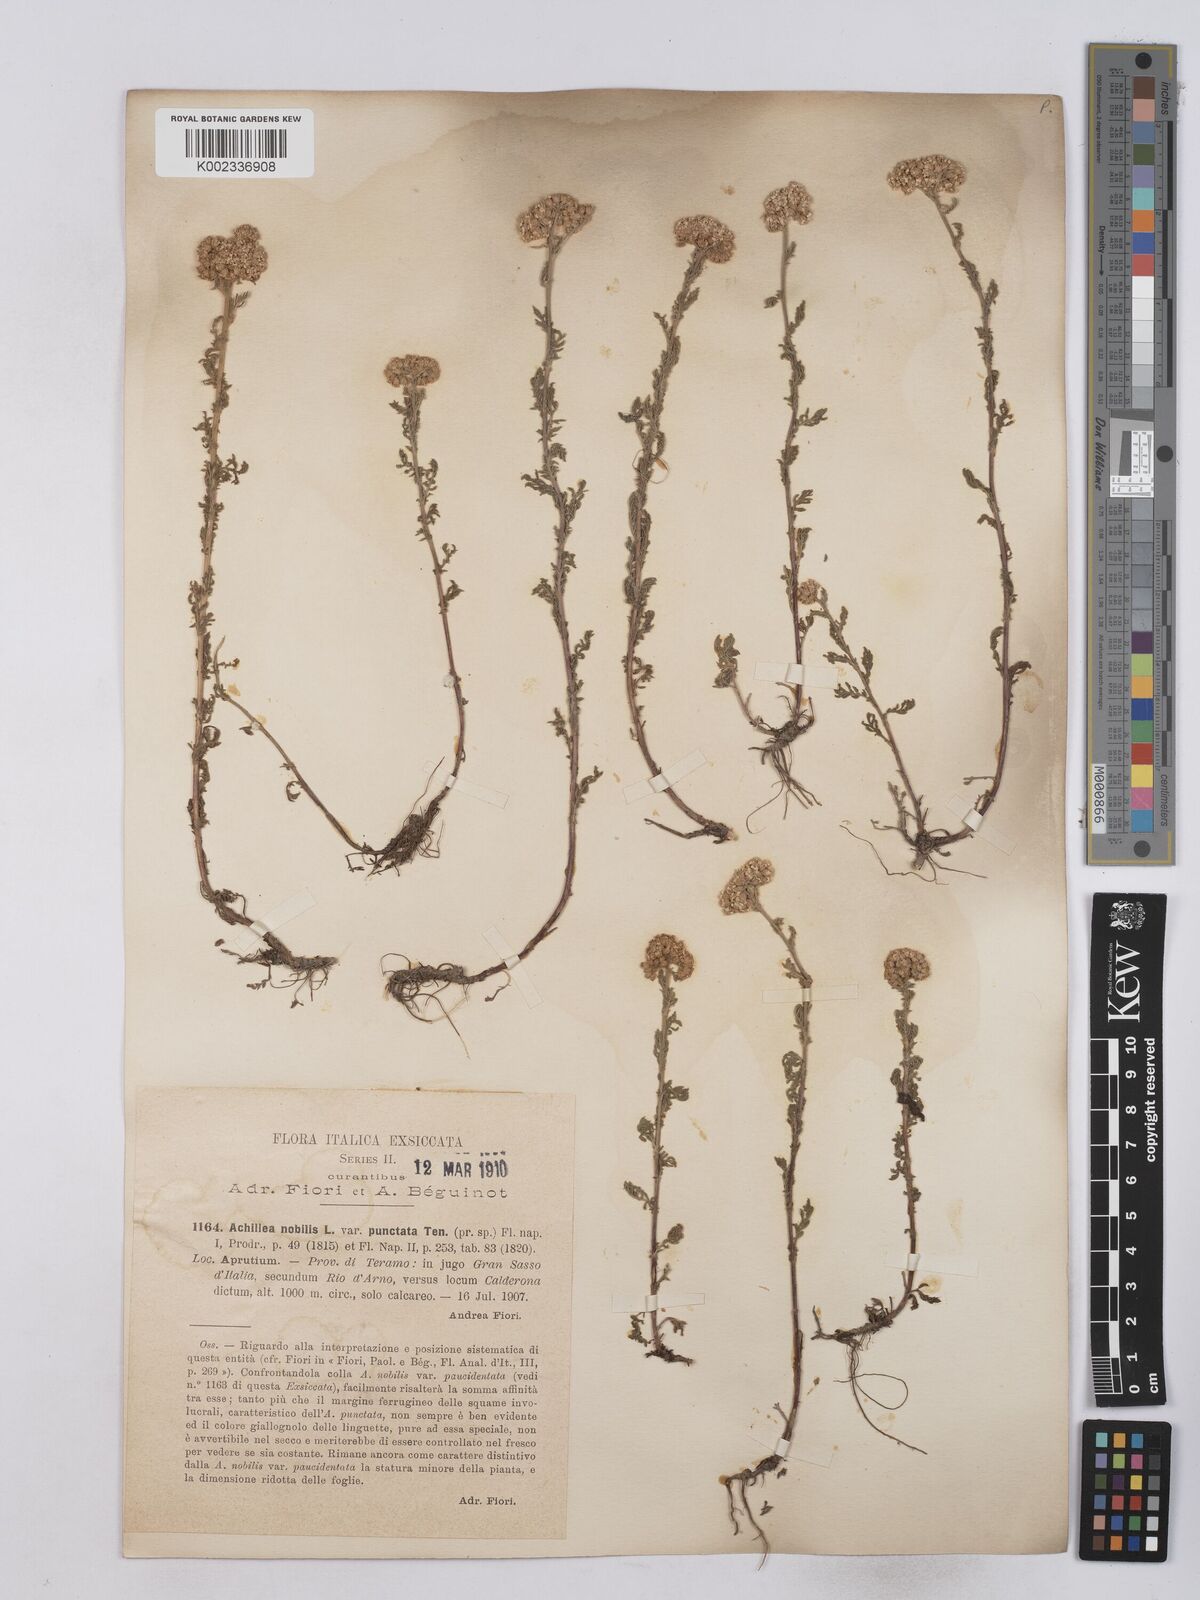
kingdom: Plantae
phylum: Tracheophyta
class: Magnoliopsida
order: Asterales
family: Asteraceae
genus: Achillea
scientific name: Achillea odorata
